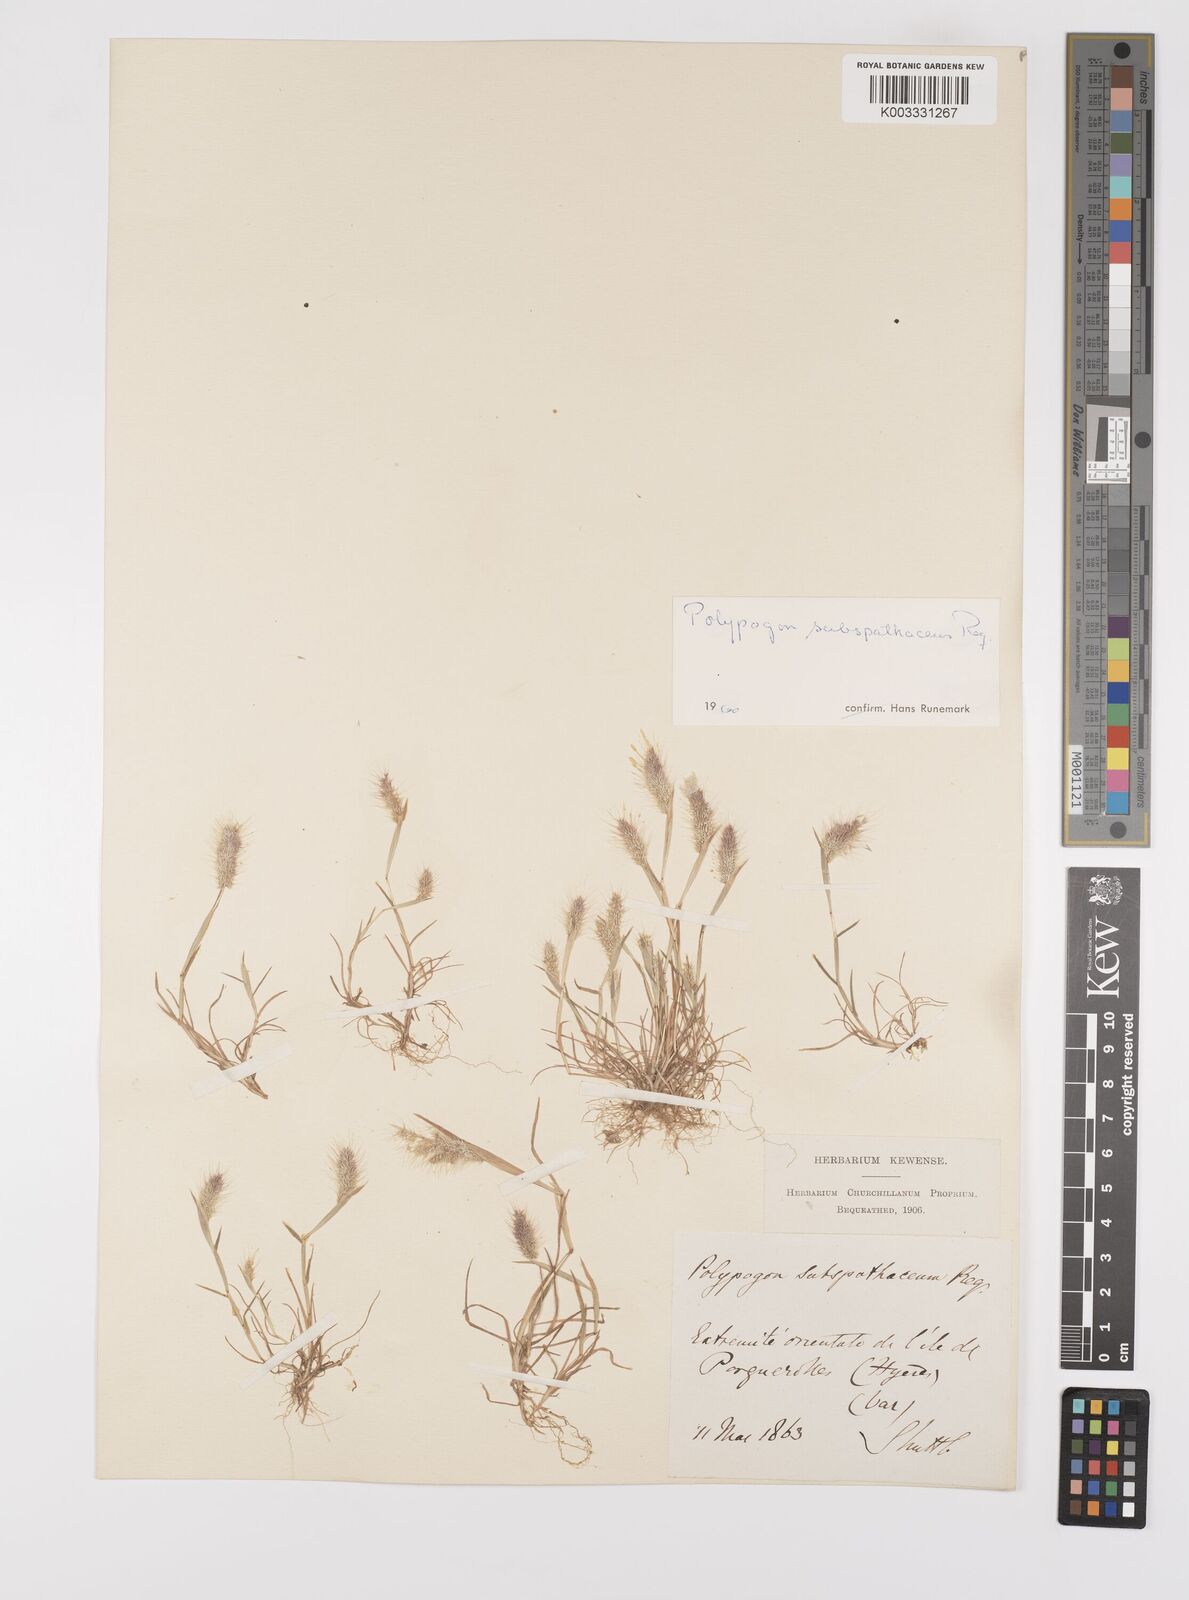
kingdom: Plantae
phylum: Tracheophyta
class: Liliopsida
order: Poales
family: Poaceae
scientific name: Poaceae
